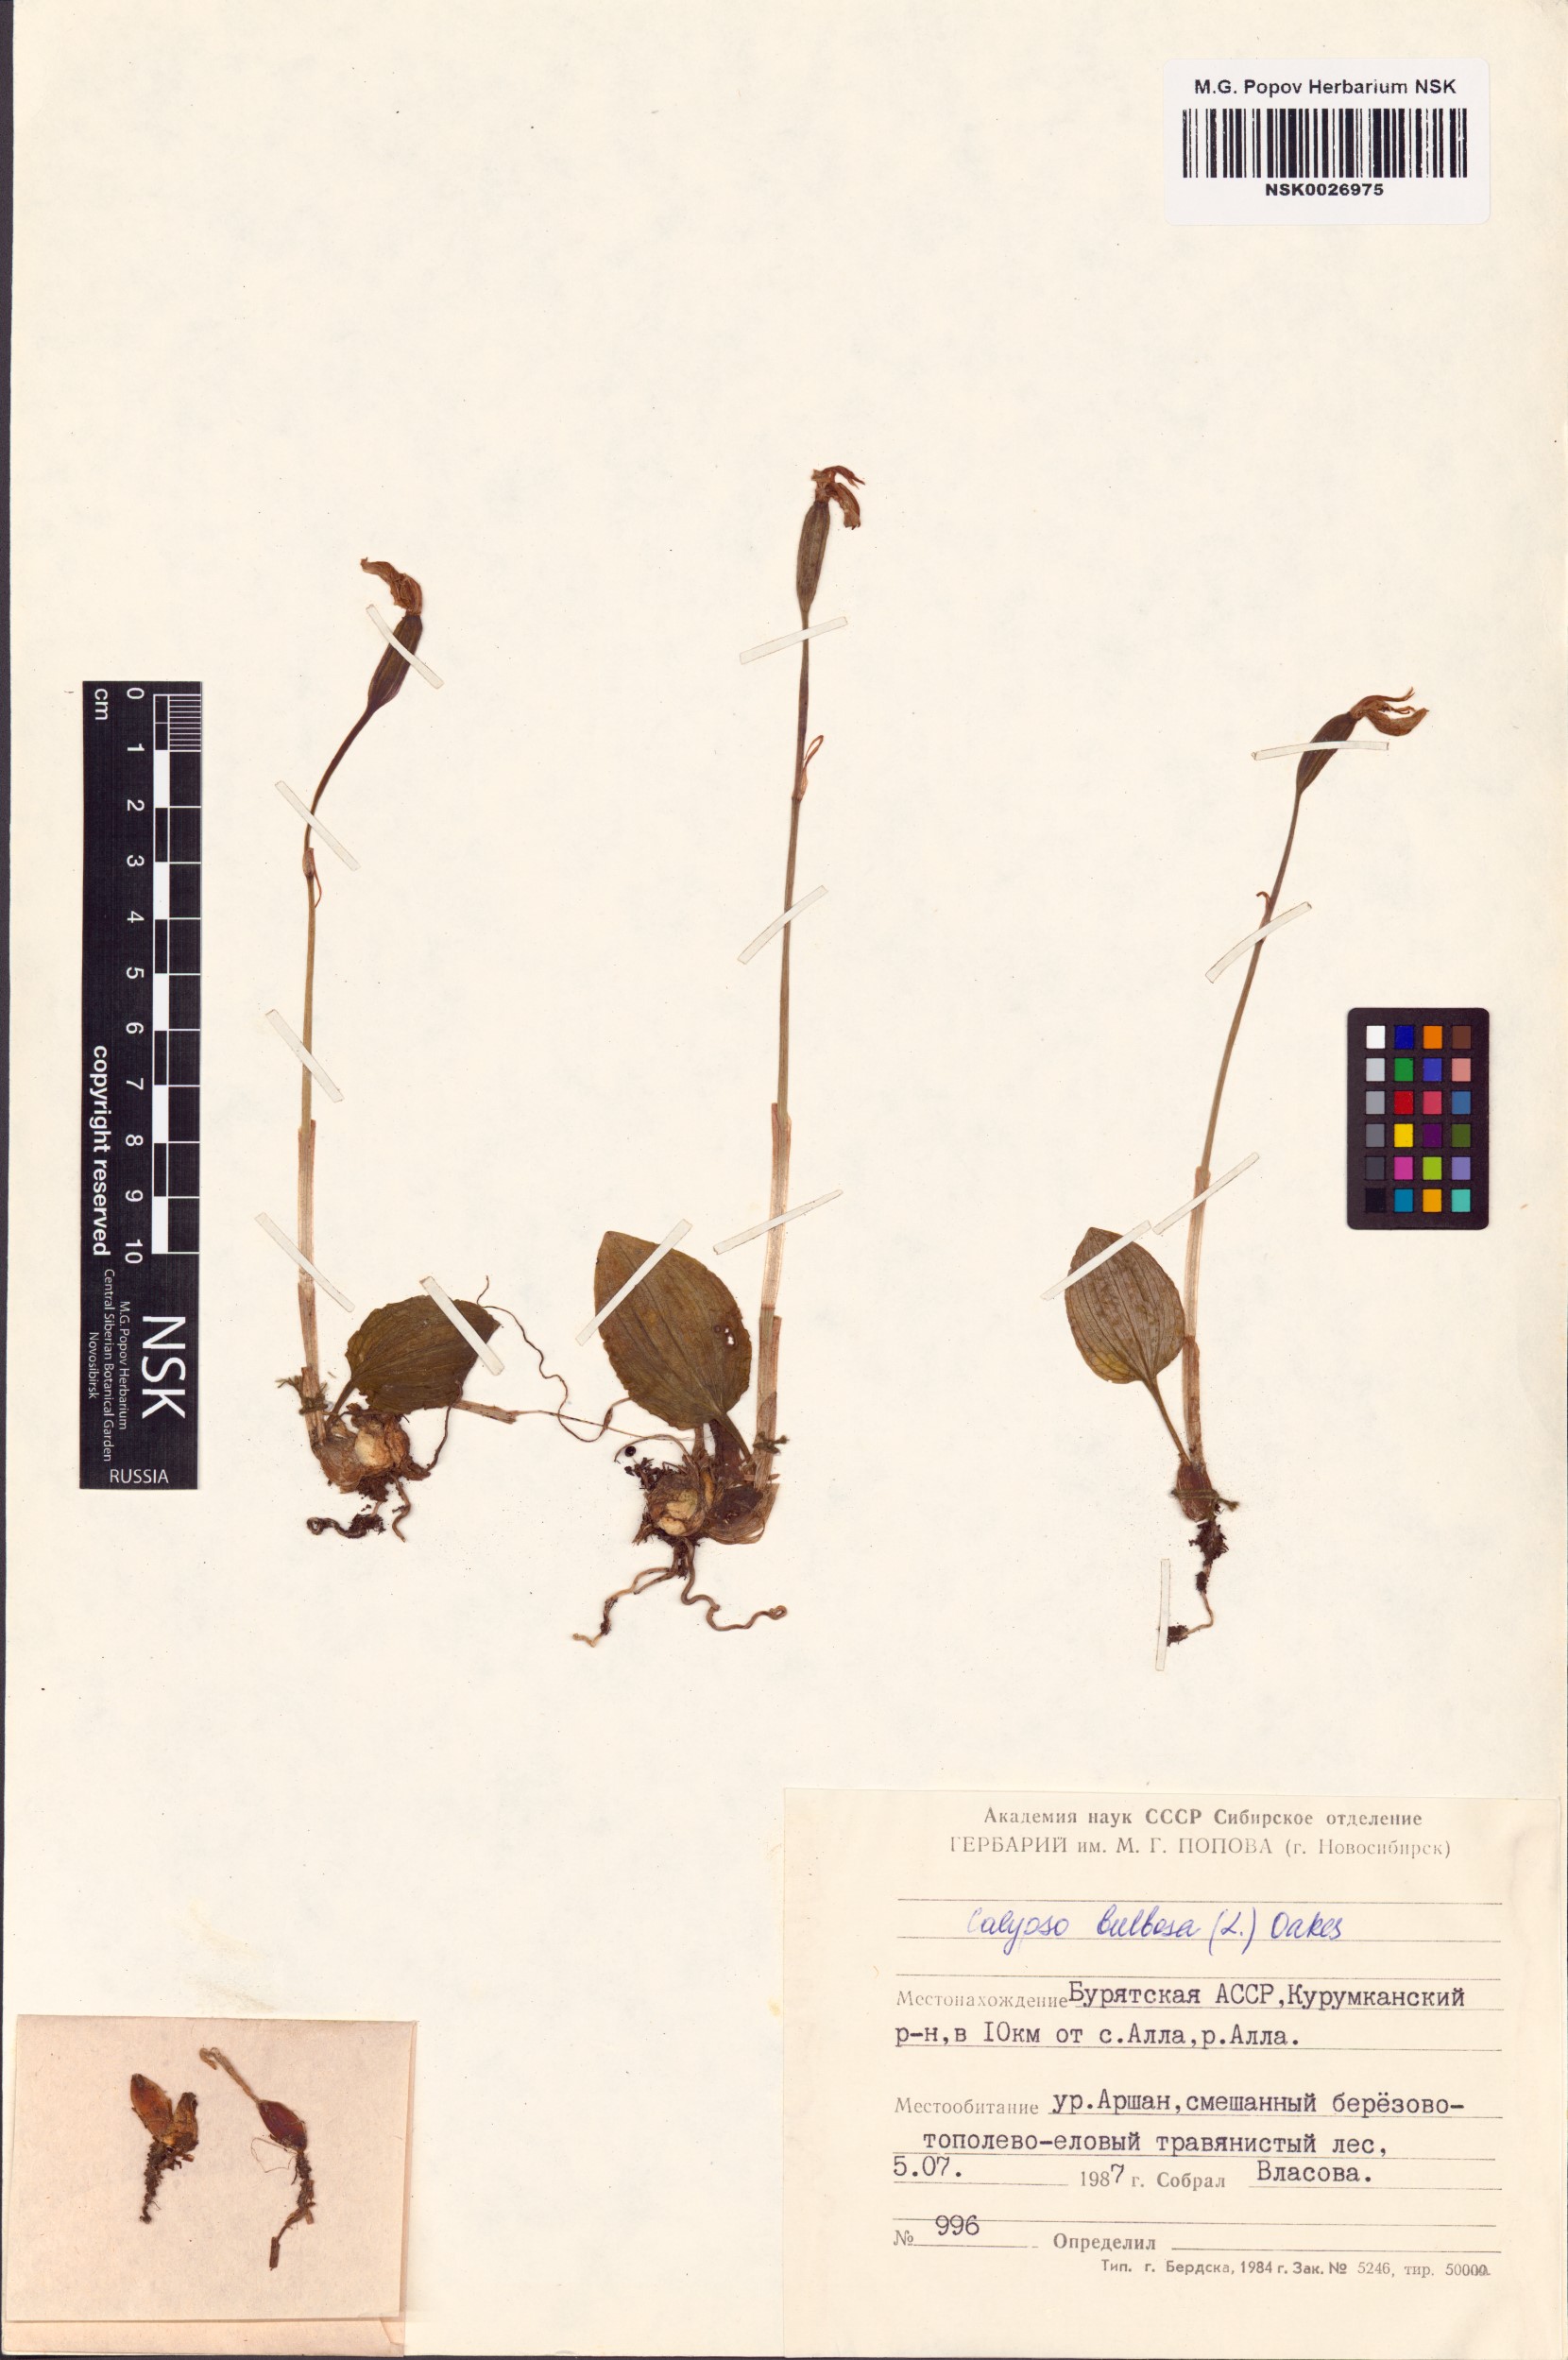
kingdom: Plantae
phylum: Tracheophyta
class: Liliopsida
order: Asparagales
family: Orchidaceae
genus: Calypso
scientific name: Calypso bulbosa
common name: Calypso
